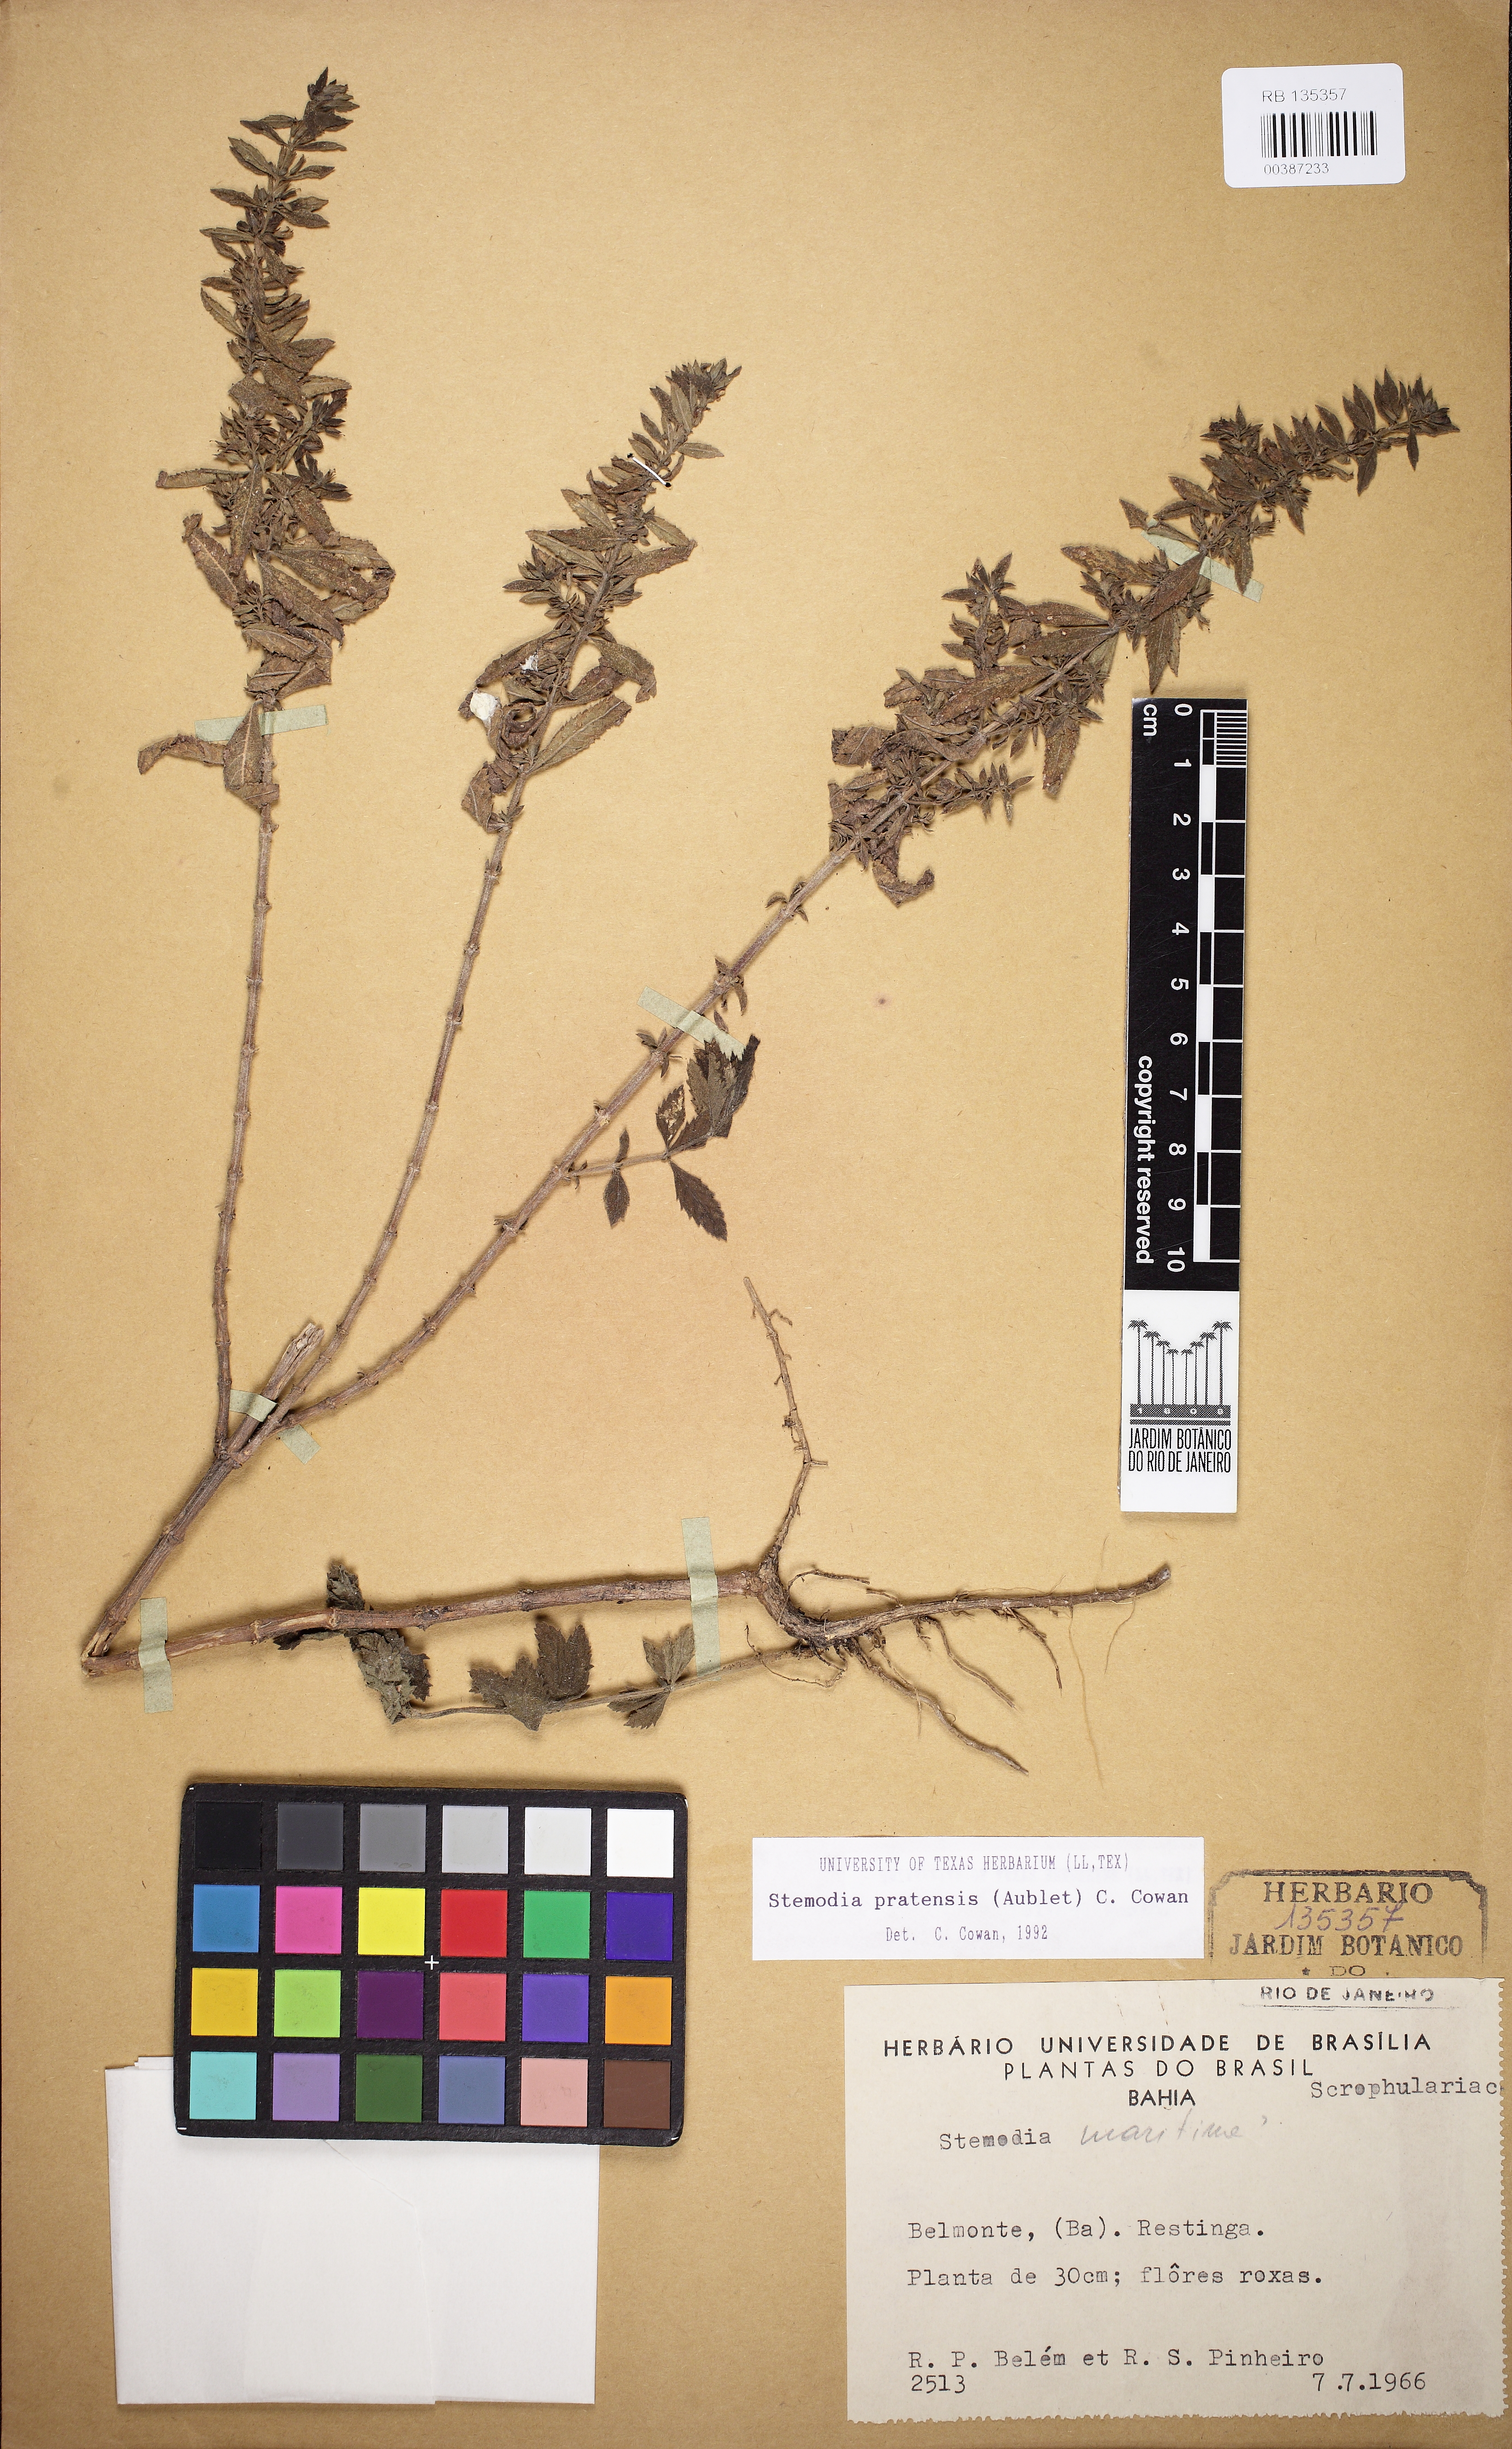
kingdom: Plantae
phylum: Tracheophyta
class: Magnoliopsida
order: Lamiales
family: Plantaginaceae
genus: Stemodia
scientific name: Stemodia foliosa
